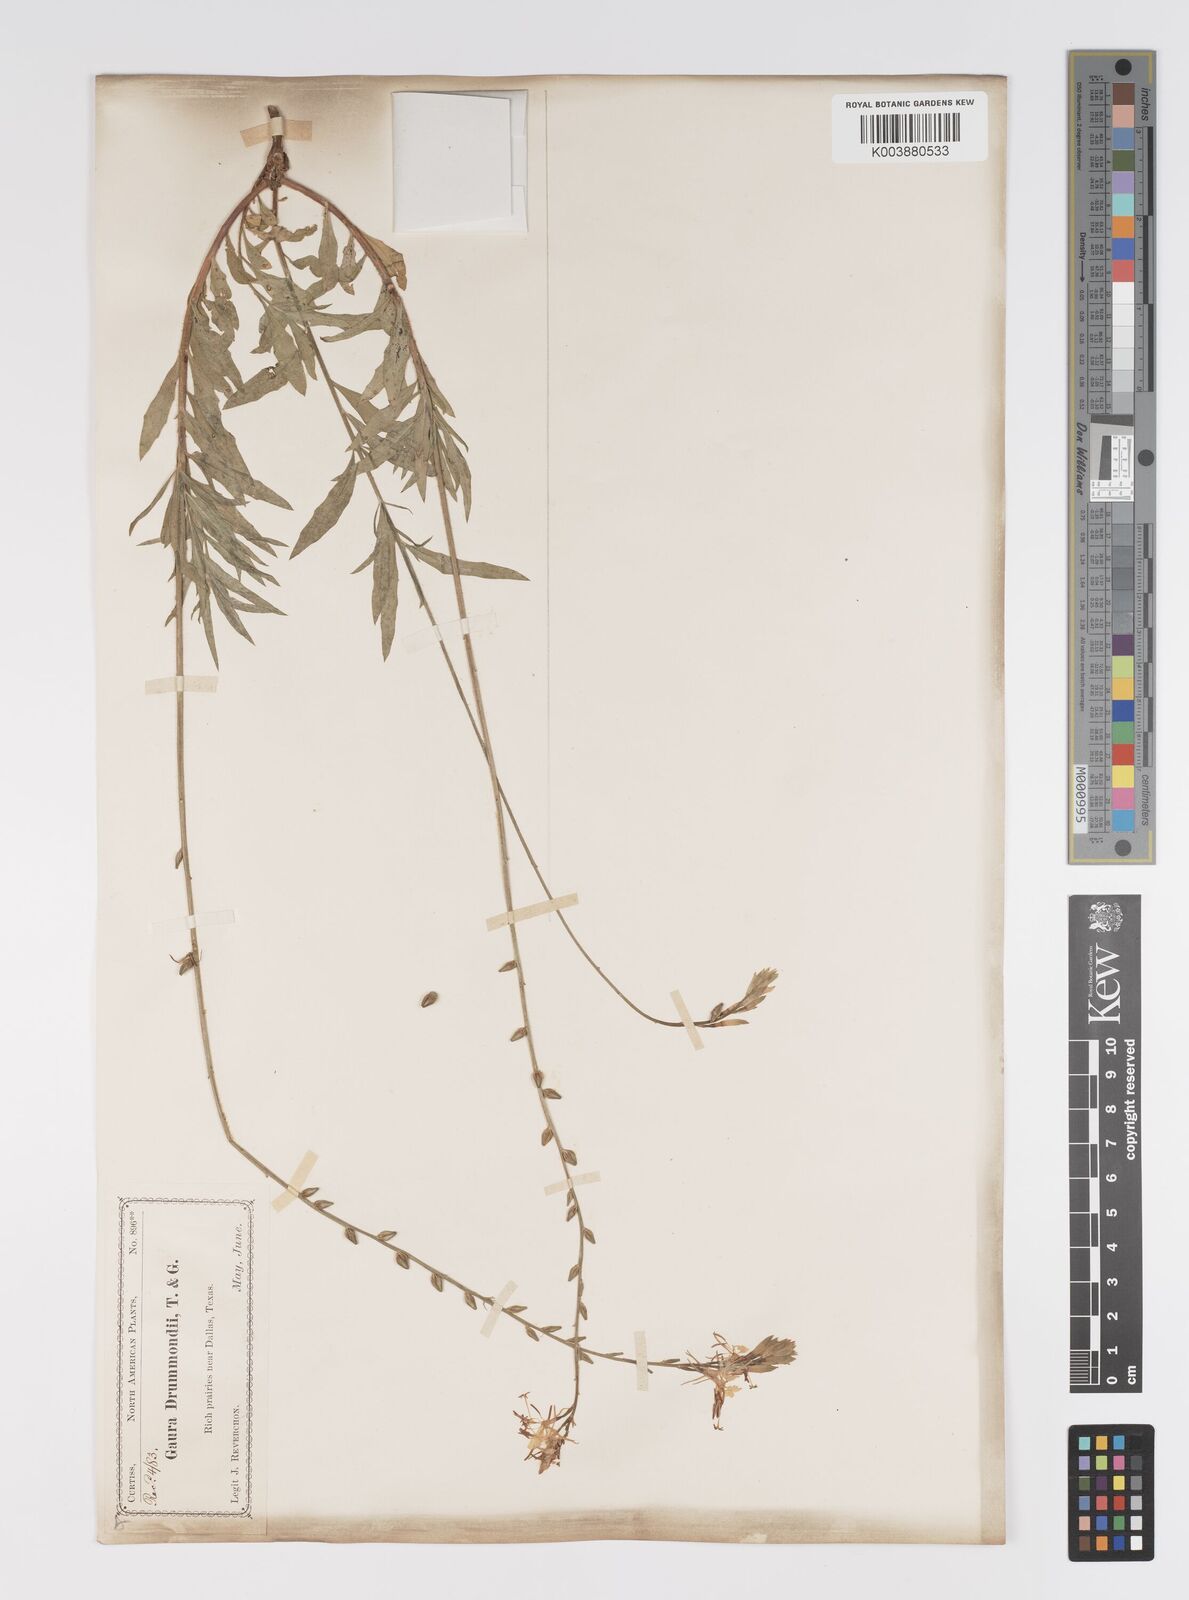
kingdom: Plantae
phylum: Tracheophyta
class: Magnoliopsida
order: Myrtales
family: Onagraceae
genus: Oenothera
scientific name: Oenothera hispida
